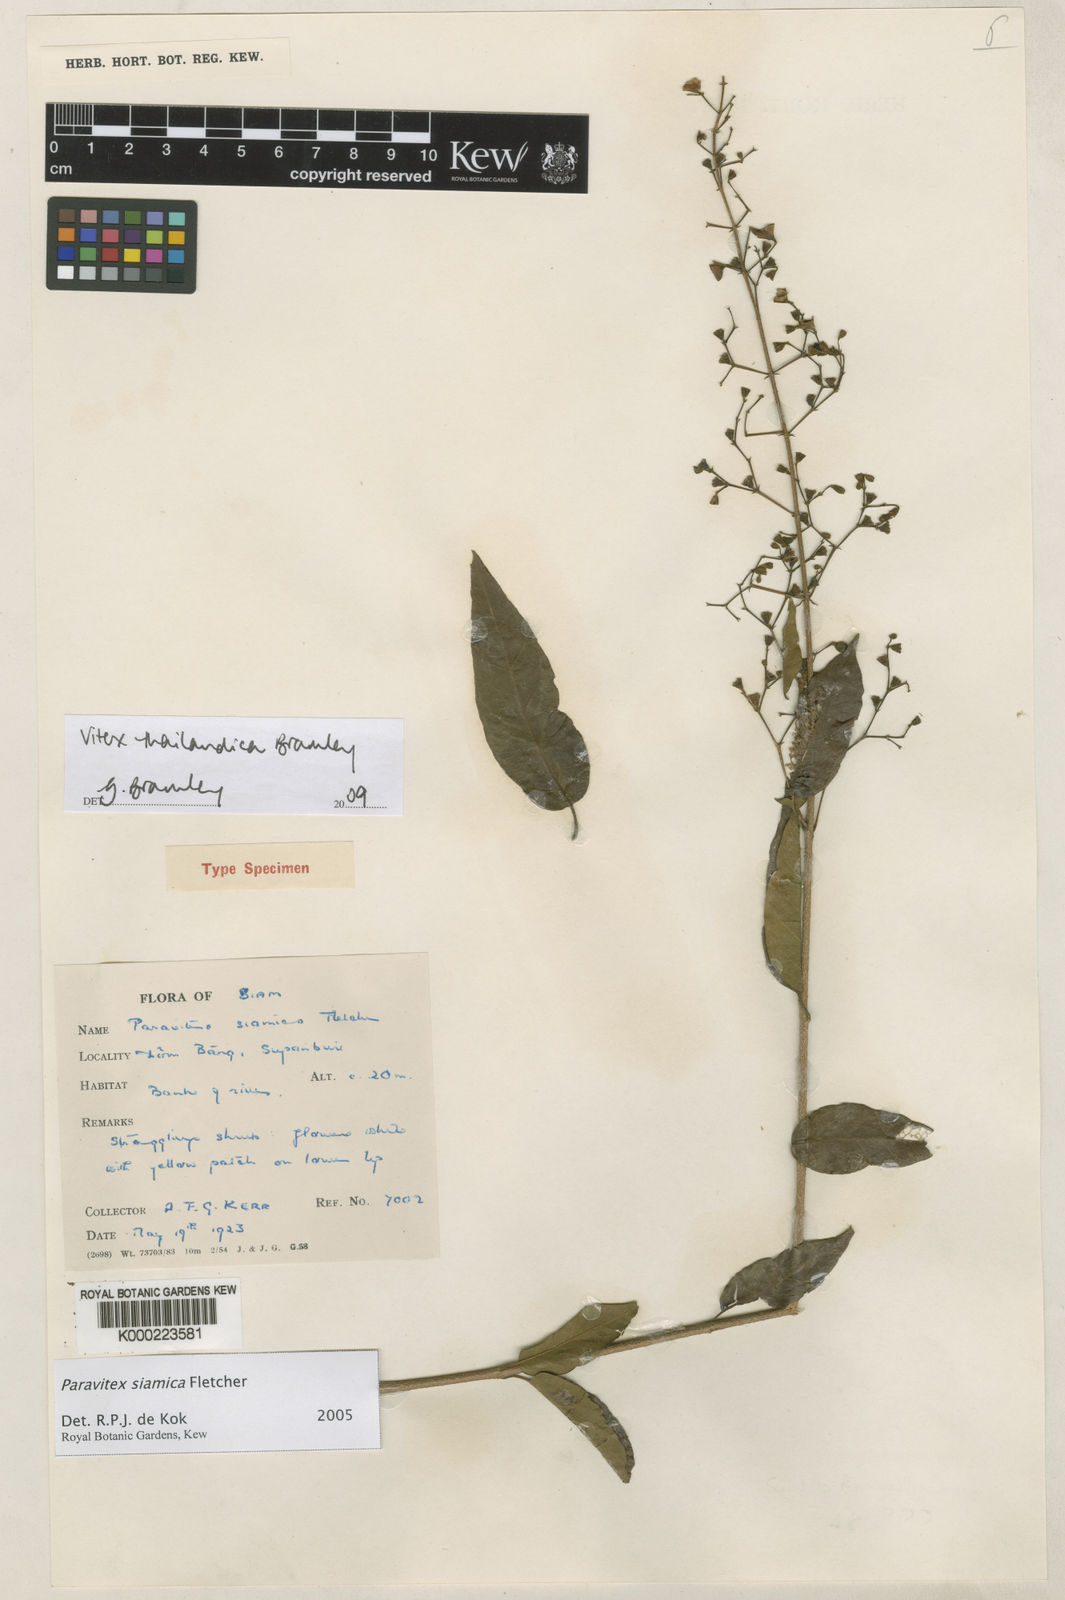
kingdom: Plantae
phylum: Tracheophyta
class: Magnoliopsida
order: Lamiales
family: Lamiaceae
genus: Vitex
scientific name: Vitex thailandica
